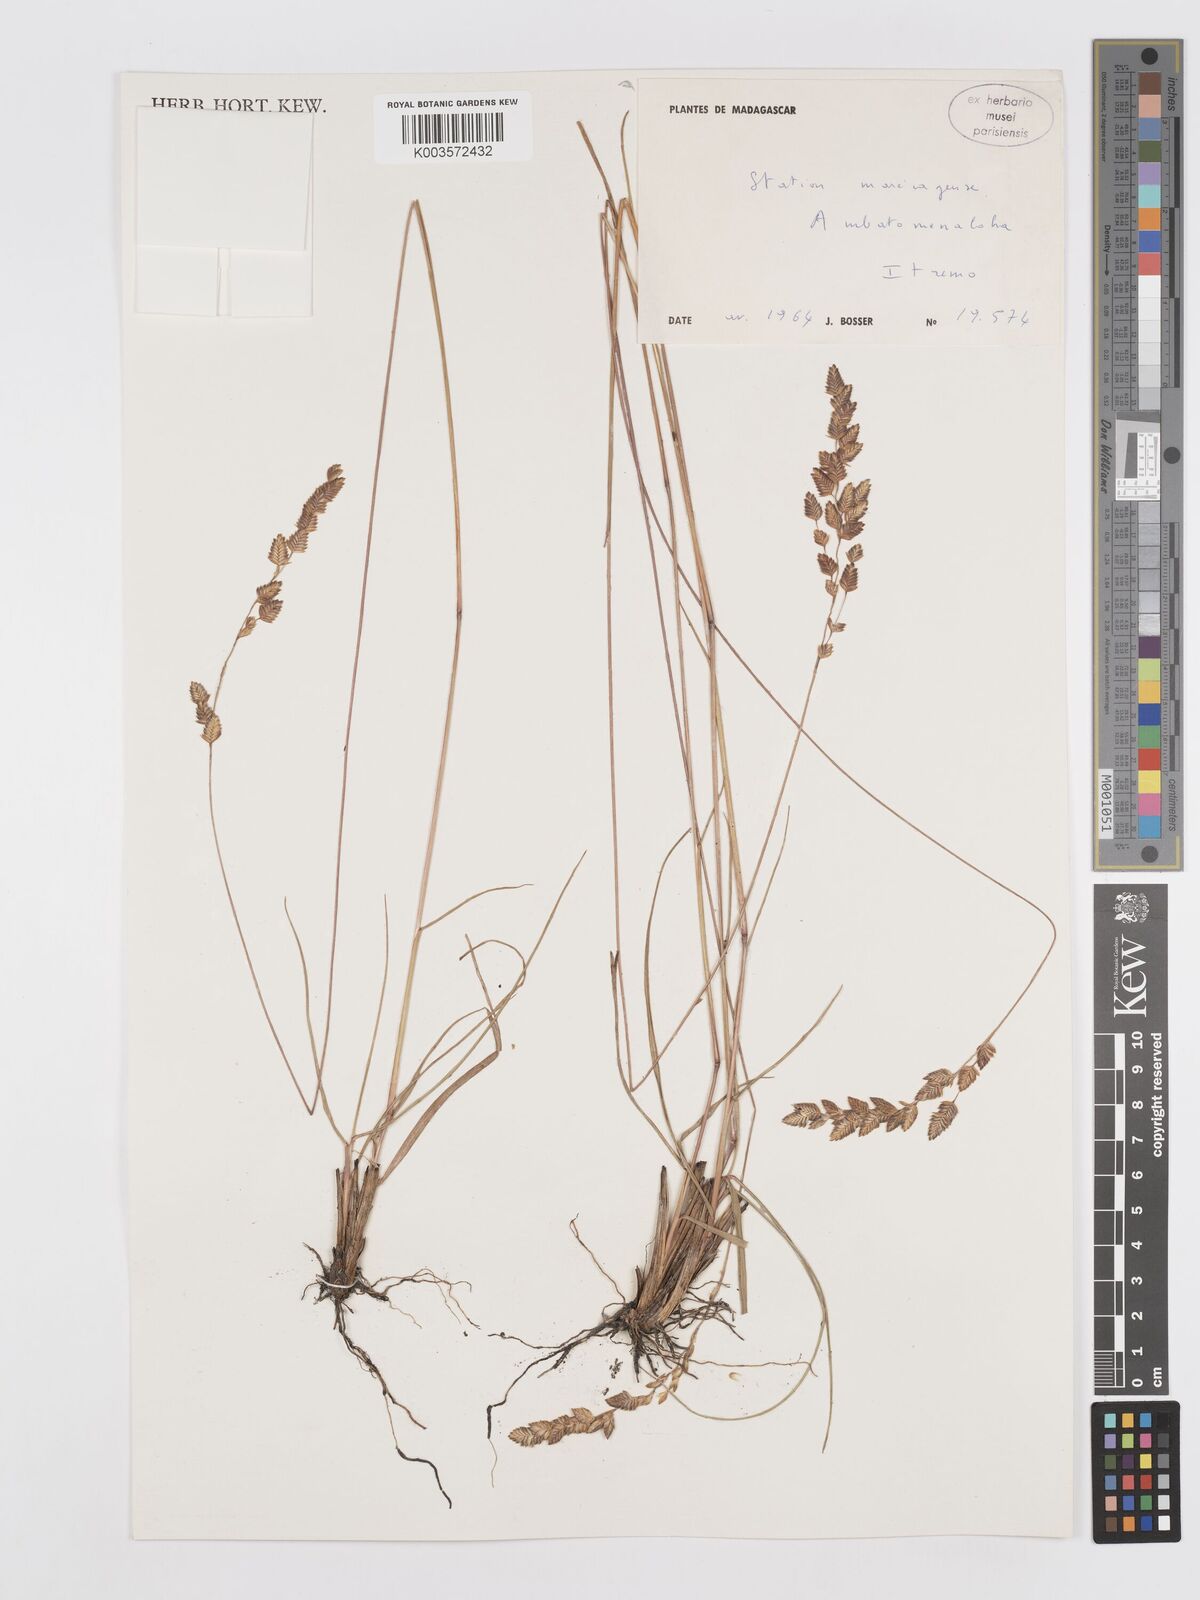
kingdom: Plantae
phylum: Tracheophyta
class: Liliopsida
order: Poales
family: Poaceae
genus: Eragrostis
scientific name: Eragrostis capensis
